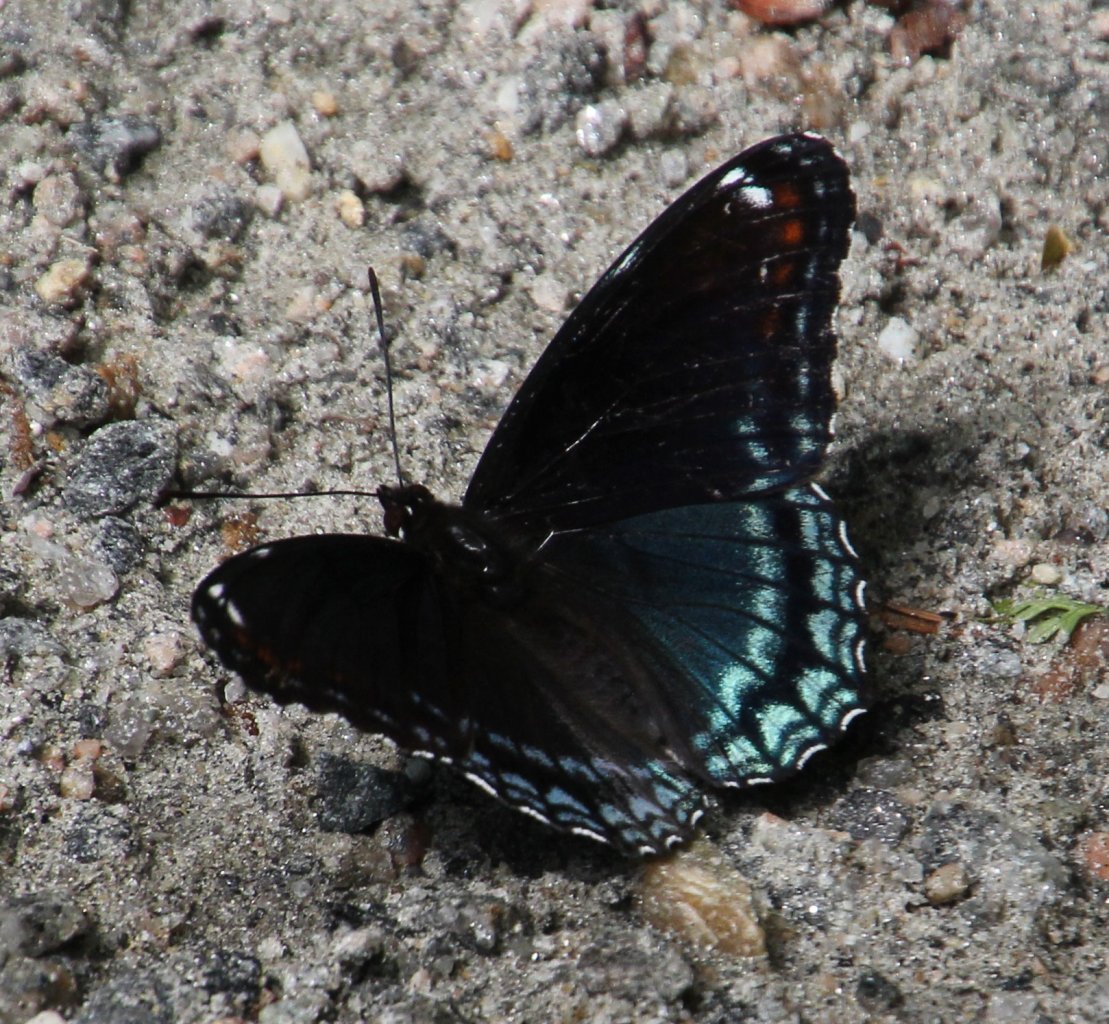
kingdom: Animalia
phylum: Arthropoda
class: Insecta
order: Lepidoptera
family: Nymphalidae
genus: Limenitis
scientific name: Limenitis astyanax
